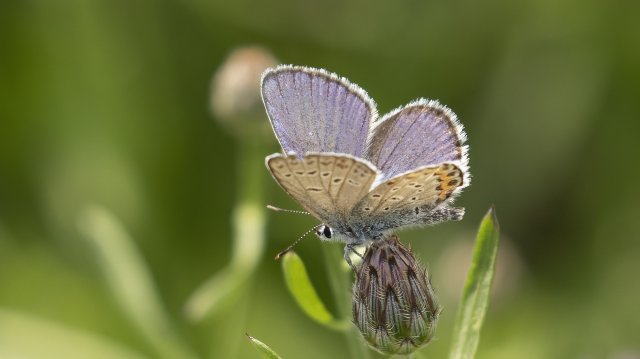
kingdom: Animalia
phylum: Arthropoda
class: Insecta
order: Lepidoptera
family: Lycaenidae
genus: Plebejus
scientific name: Plebejus samuelis
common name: Karner Blue
